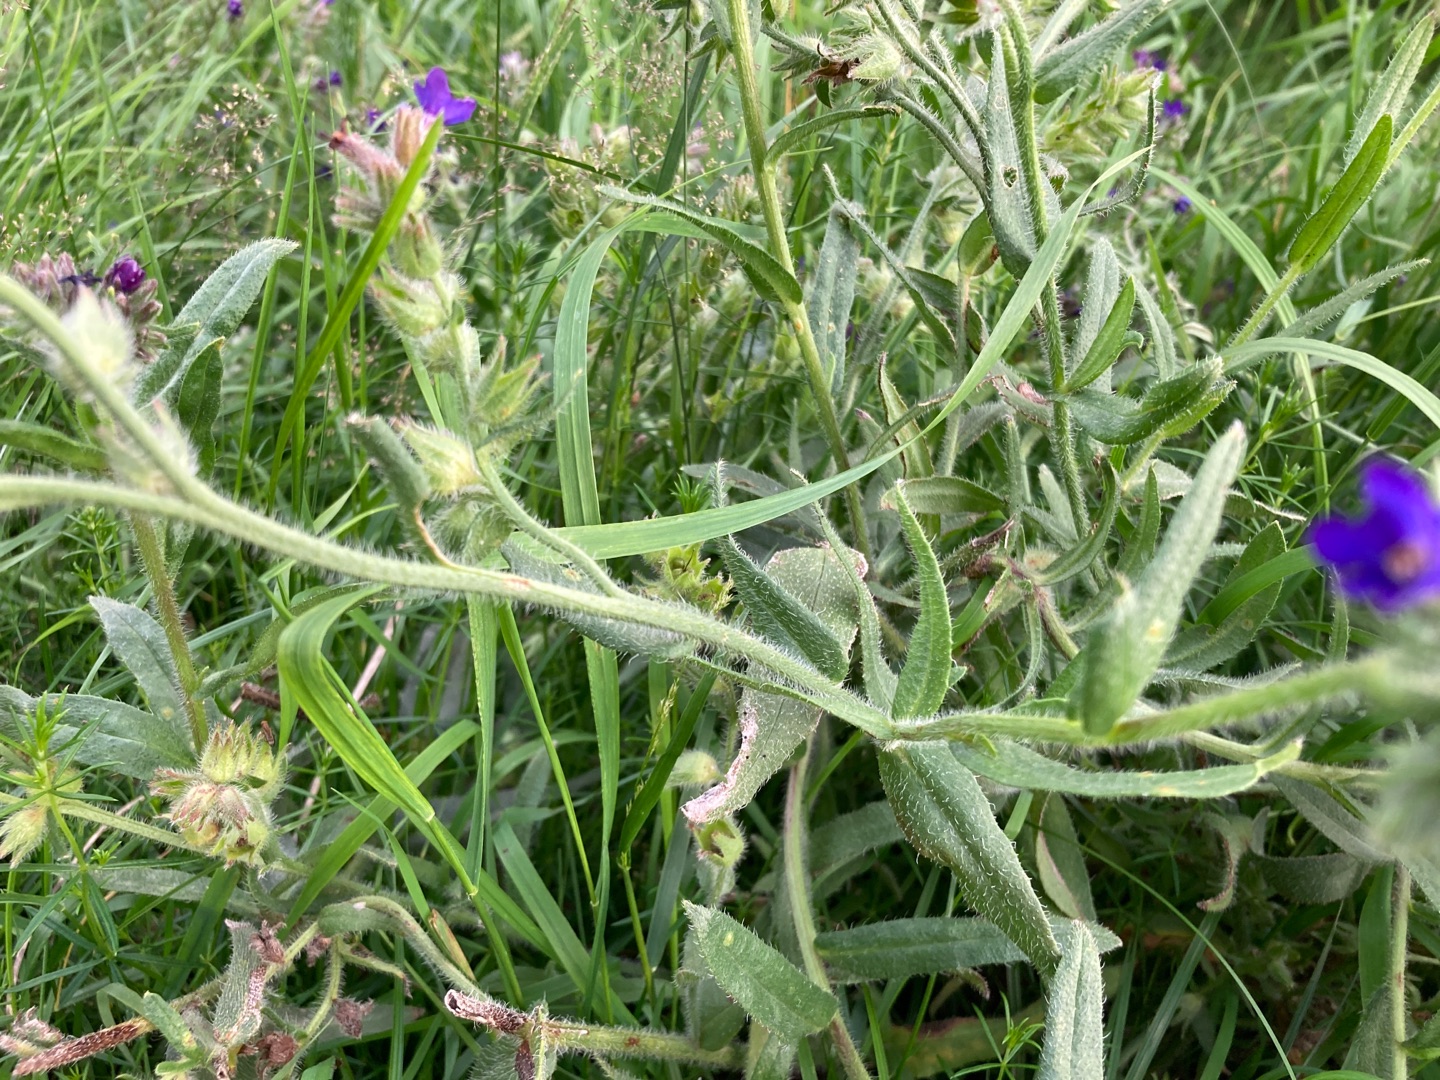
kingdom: Plantae
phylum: Tracheophyta
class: Magnoliopsida
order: Boraginales
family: Boraginaceae
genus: Anchusa
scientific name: Anchusa officinalis
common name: Læge-oksetunge
